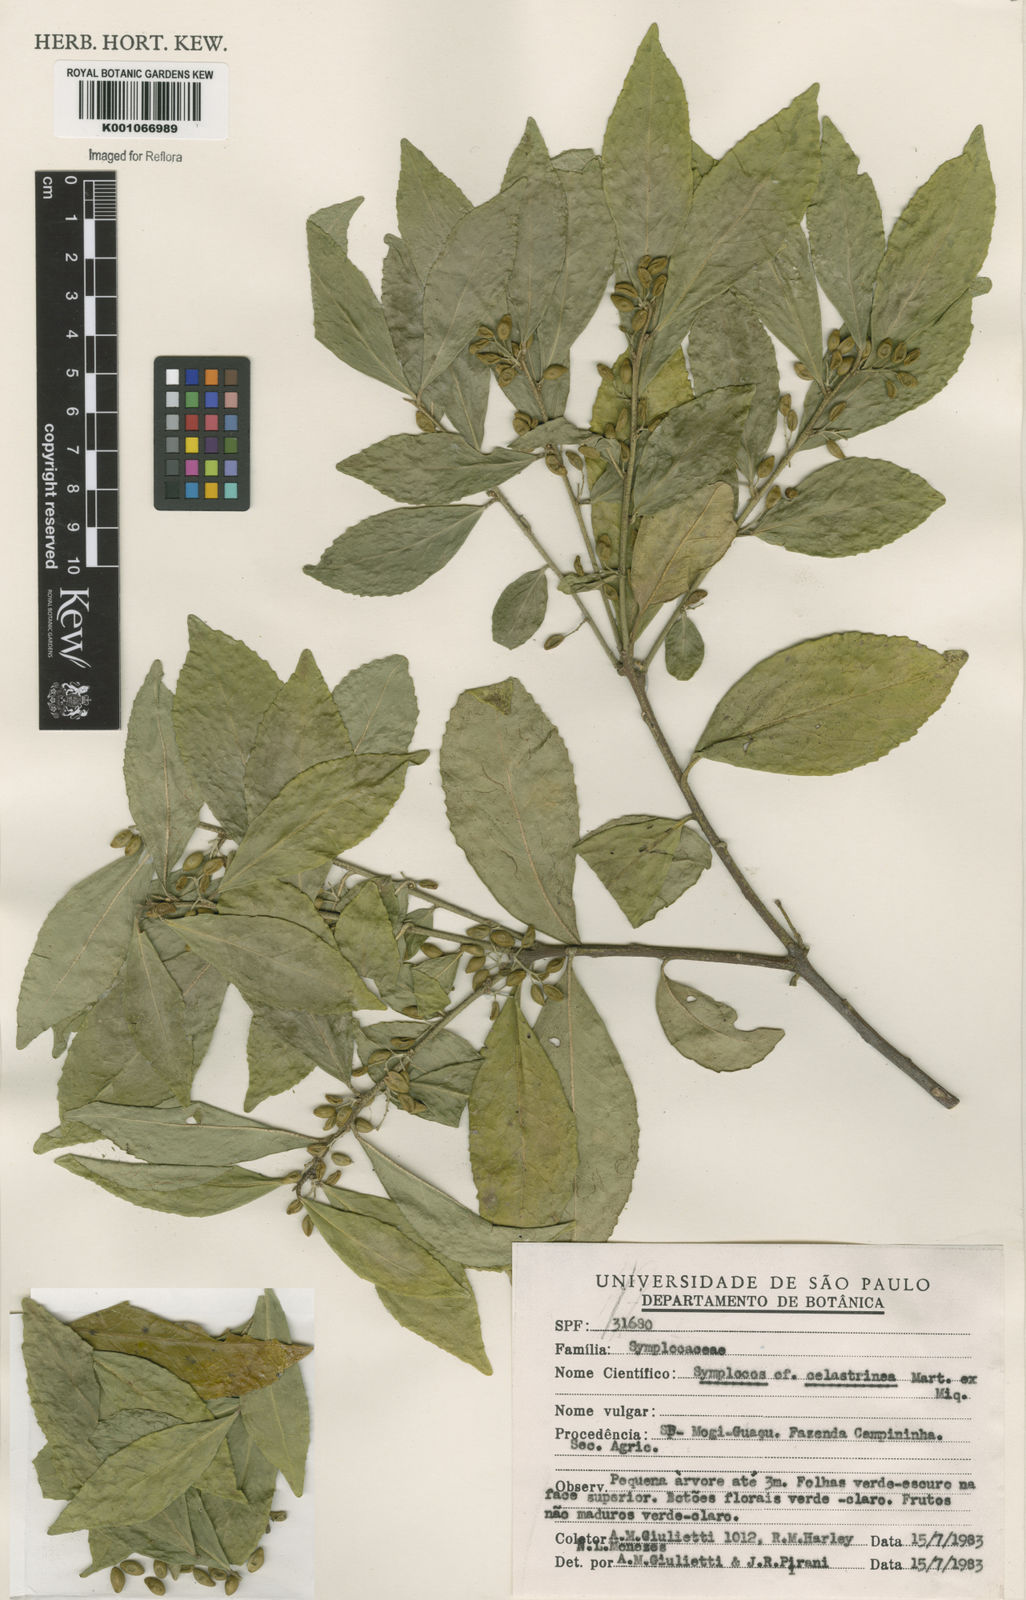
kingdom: Plantae
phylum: Tracheophyta
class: Magnoliopsida
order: Ericales
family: Symplocaceae
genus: Symplocos
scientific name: Symplocos
